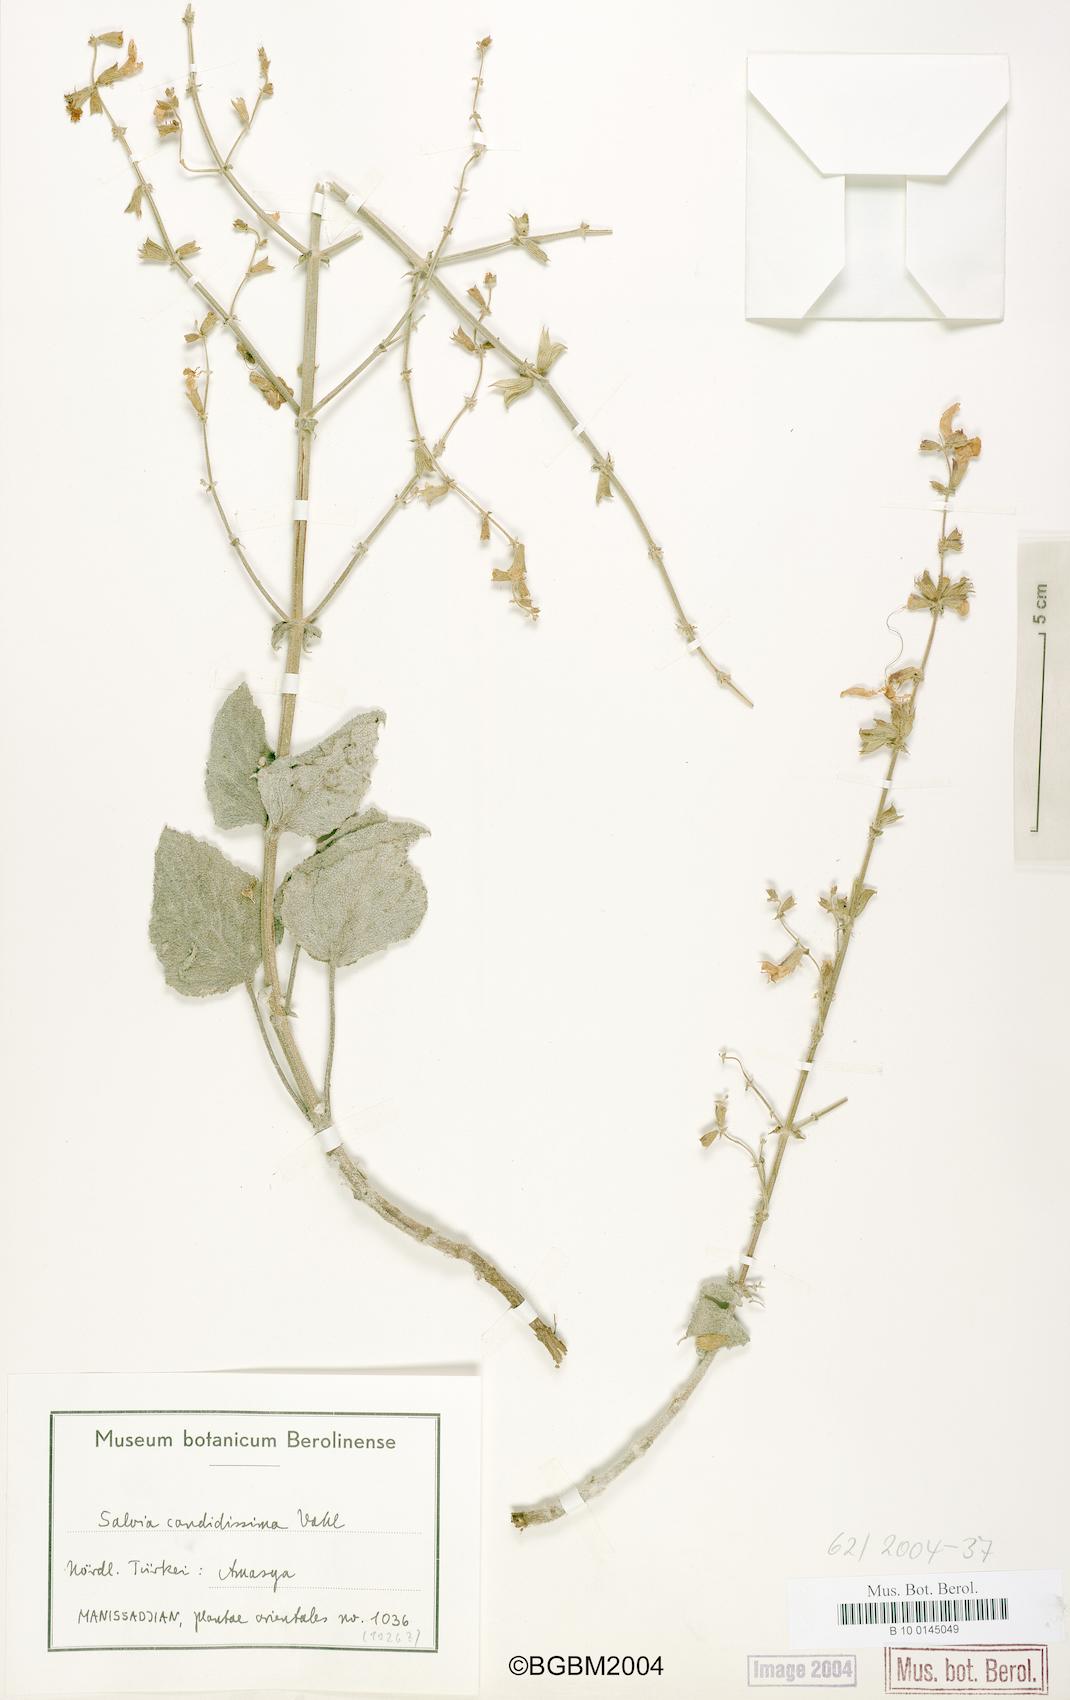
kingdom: Plantae
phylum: Tracheophyta
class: Magnoliopsida
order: Lamiales
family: Lamiaceae
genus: Salvia
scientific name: Salvia candidissima
